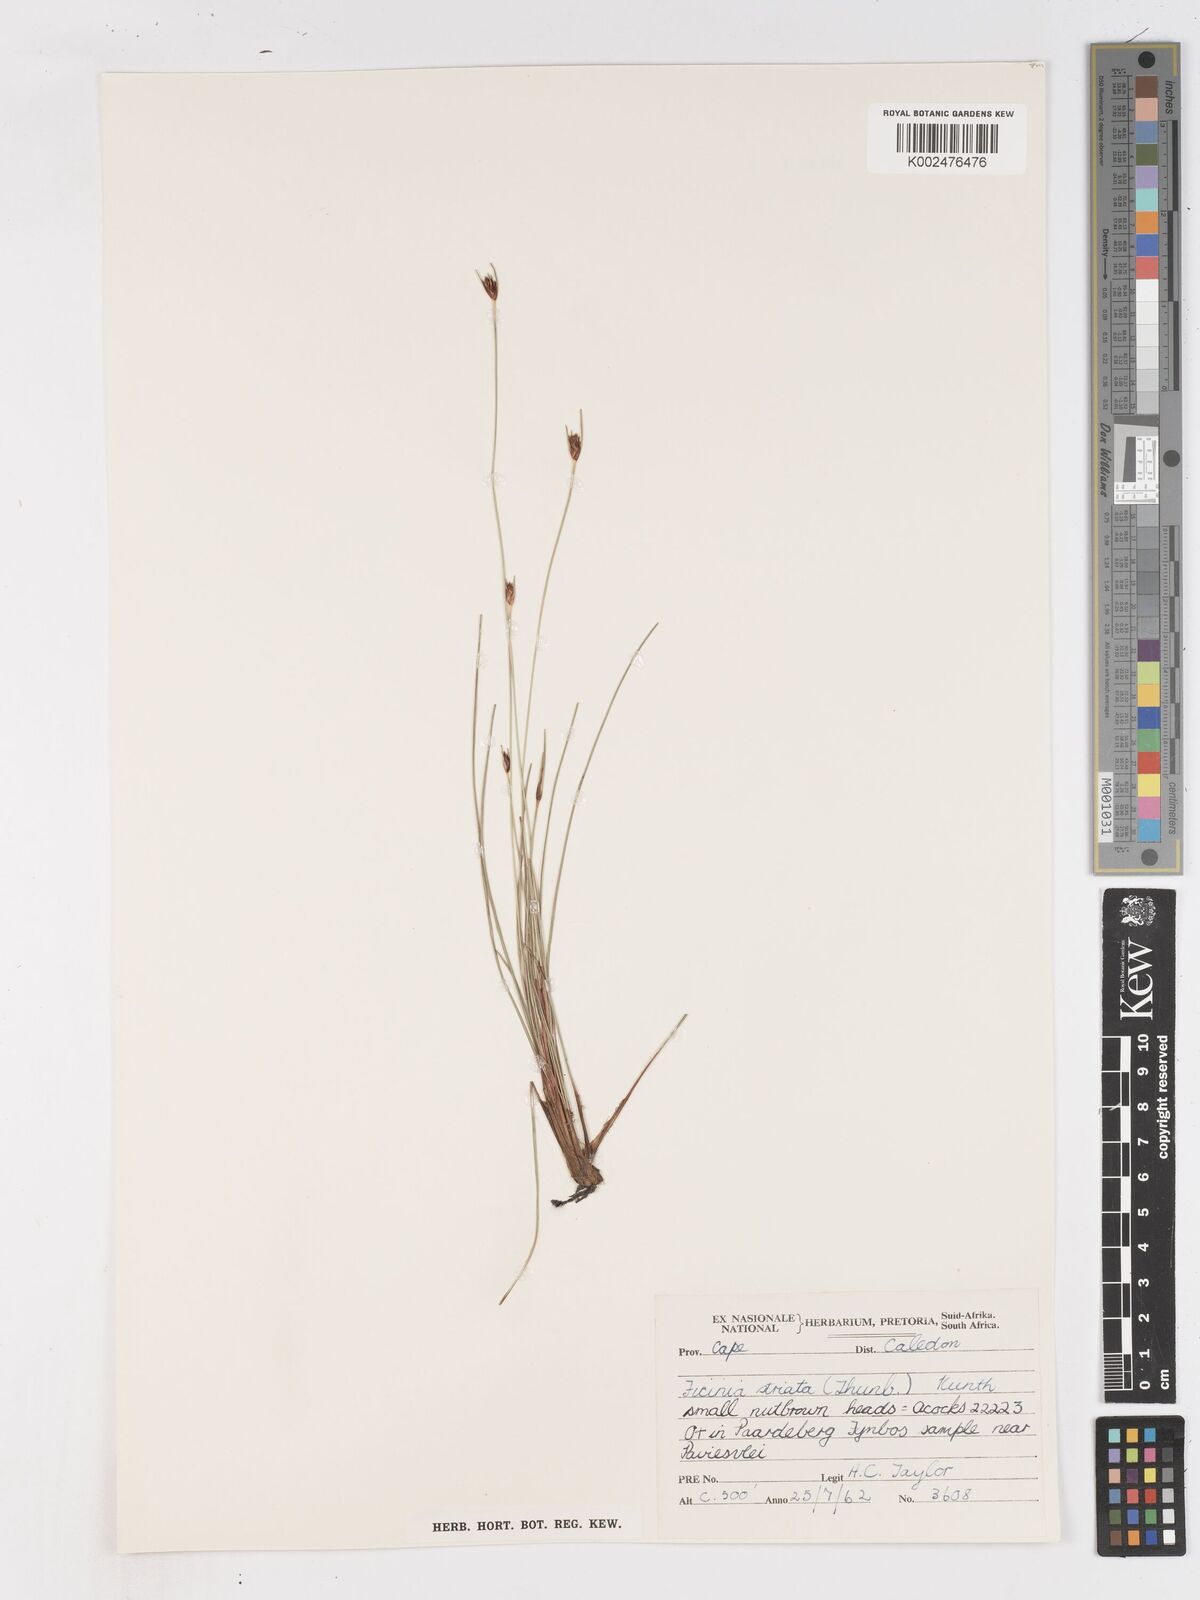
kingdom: Plantae
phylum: Tracheophyta
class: Liliopsida
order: Poales
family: Cyperaceae
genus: Ficinia
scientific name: Ficinia indica
